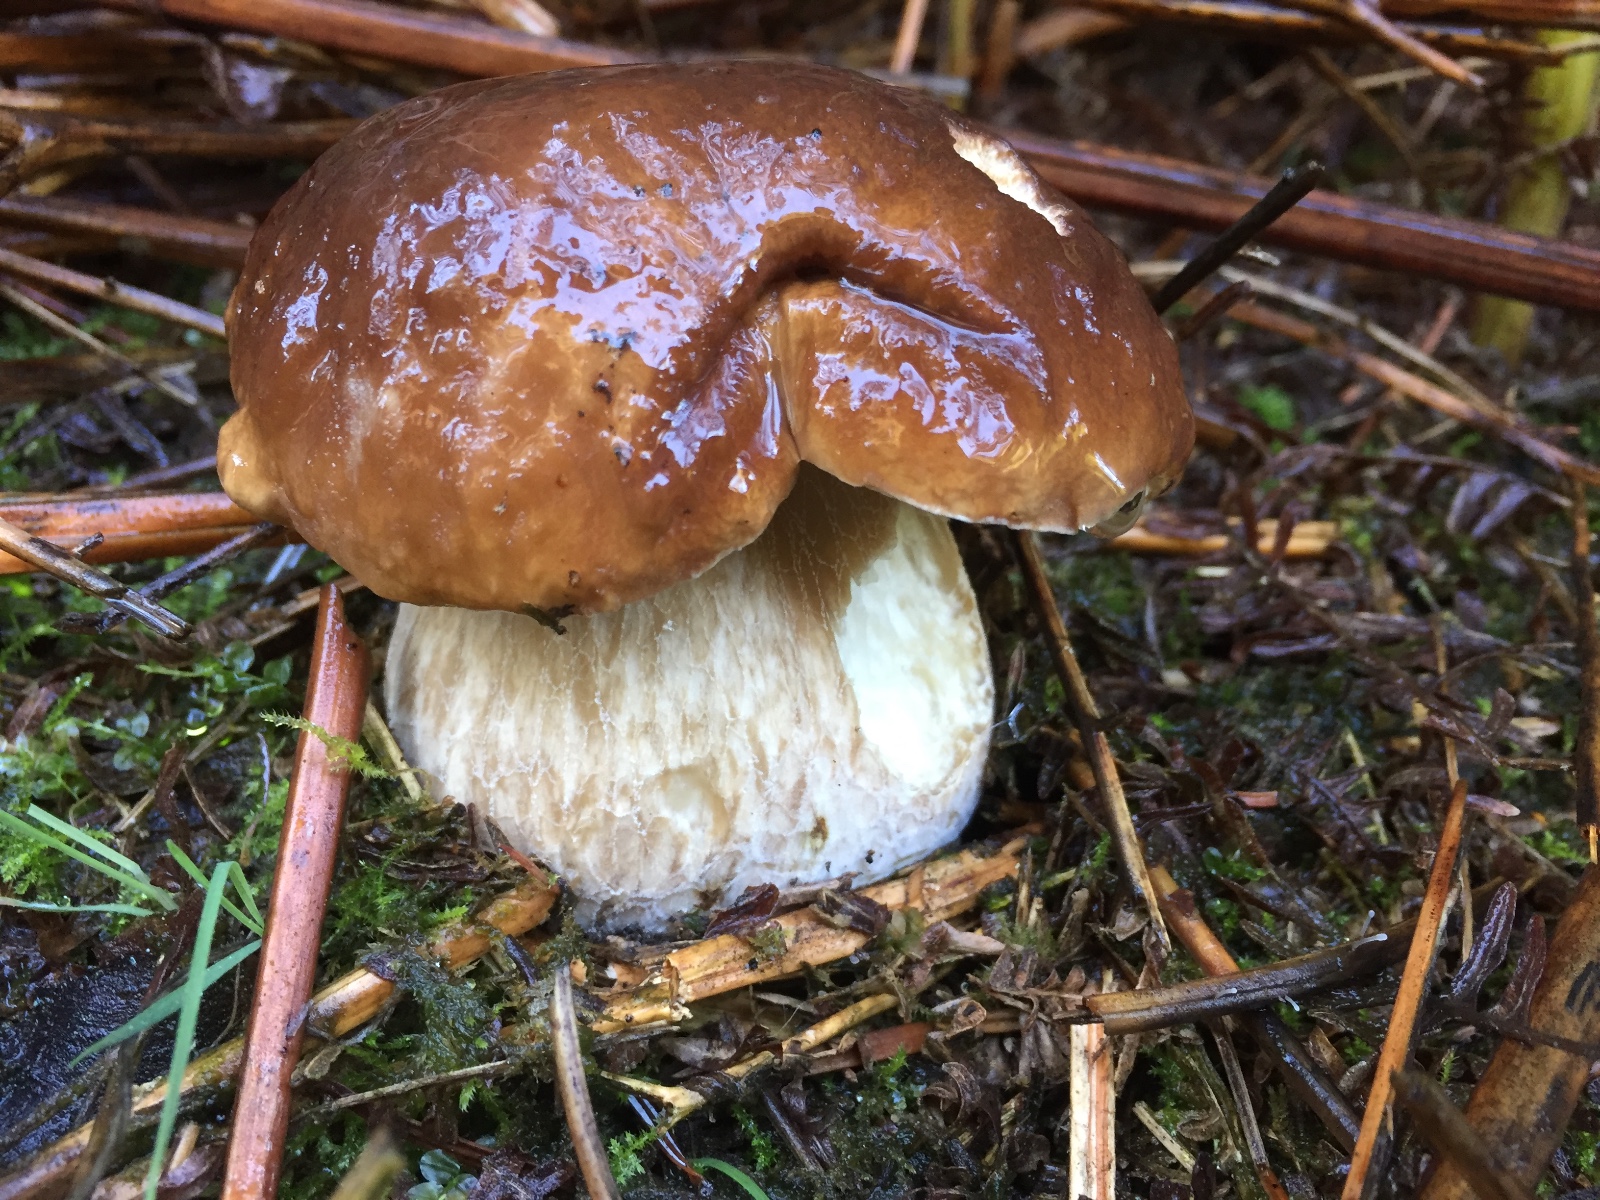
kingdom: Fungi
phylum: Basidiomycota
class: Agaricomycetes
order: Boletales
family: Boletaceae
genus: Boletus
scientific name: Boletus edulis
